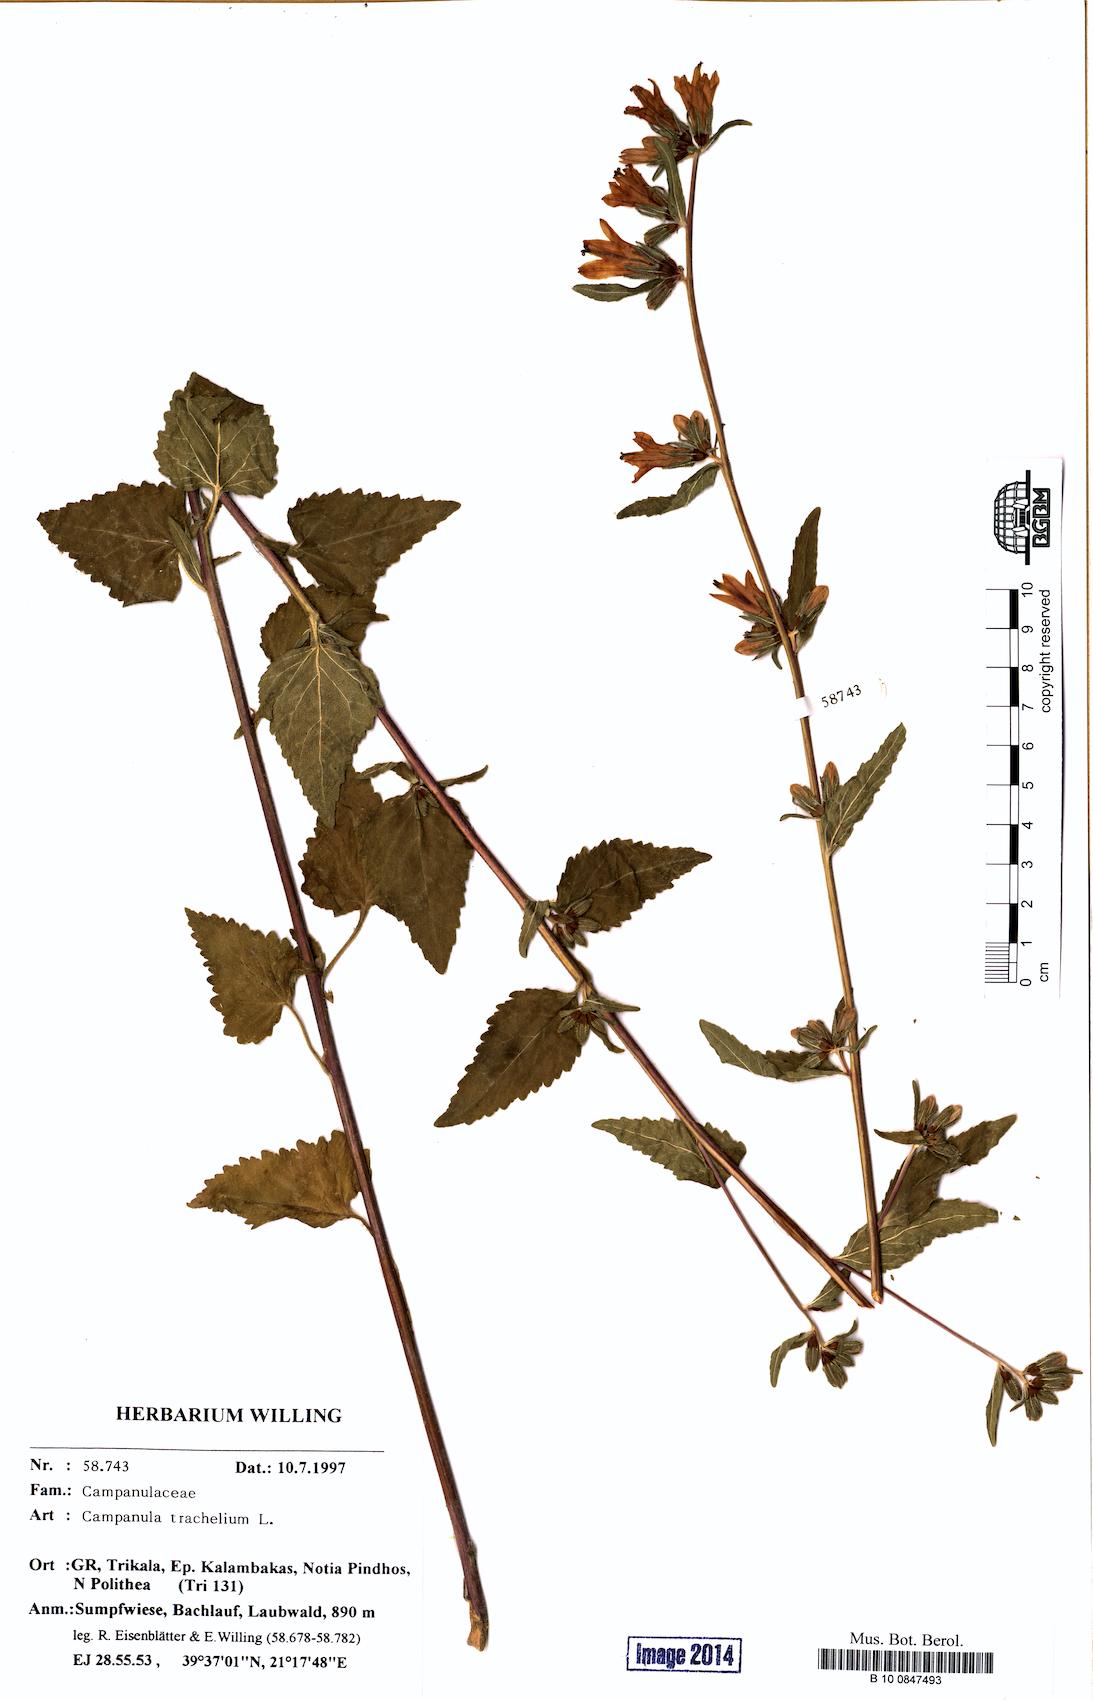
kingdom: Plantae
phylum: Tracheophyta
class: Magnoliopsida
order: Asterales
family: Campanulaceae
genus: Campanula
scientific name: Campanula trachelium
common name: Nettle-leaved bellflower
